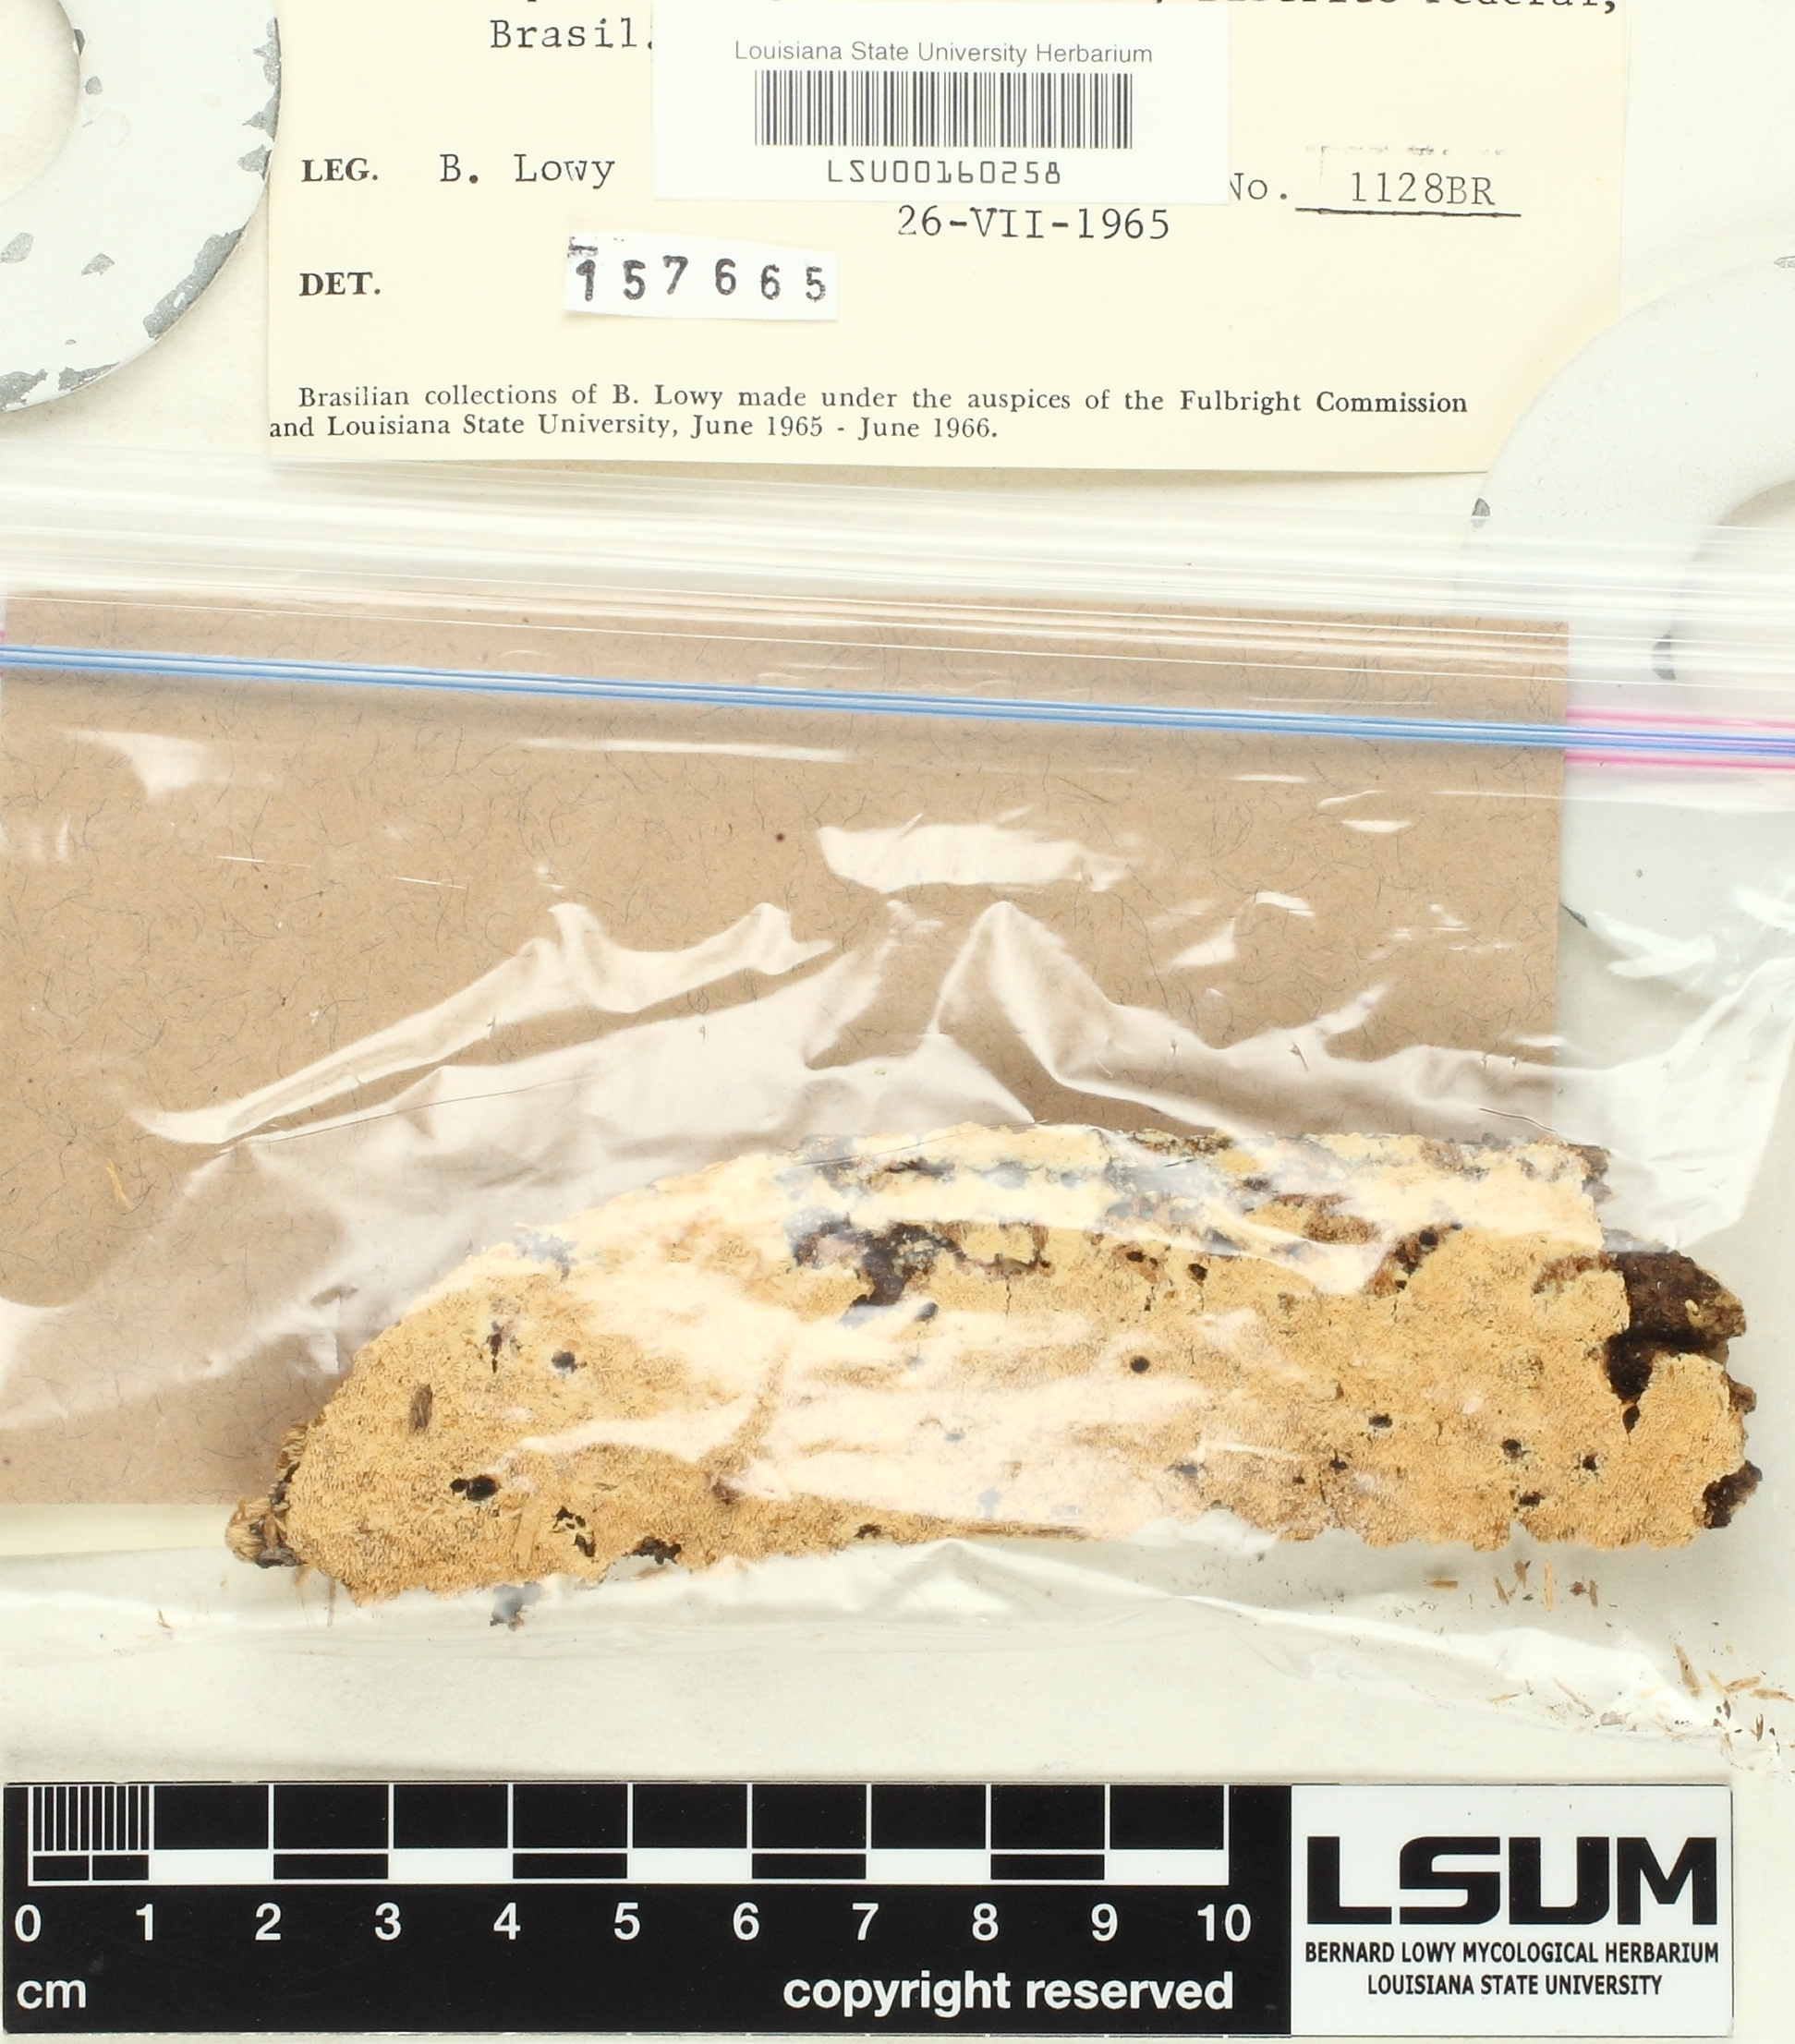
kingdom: Fungi
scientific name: Fungi
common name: Fungi
